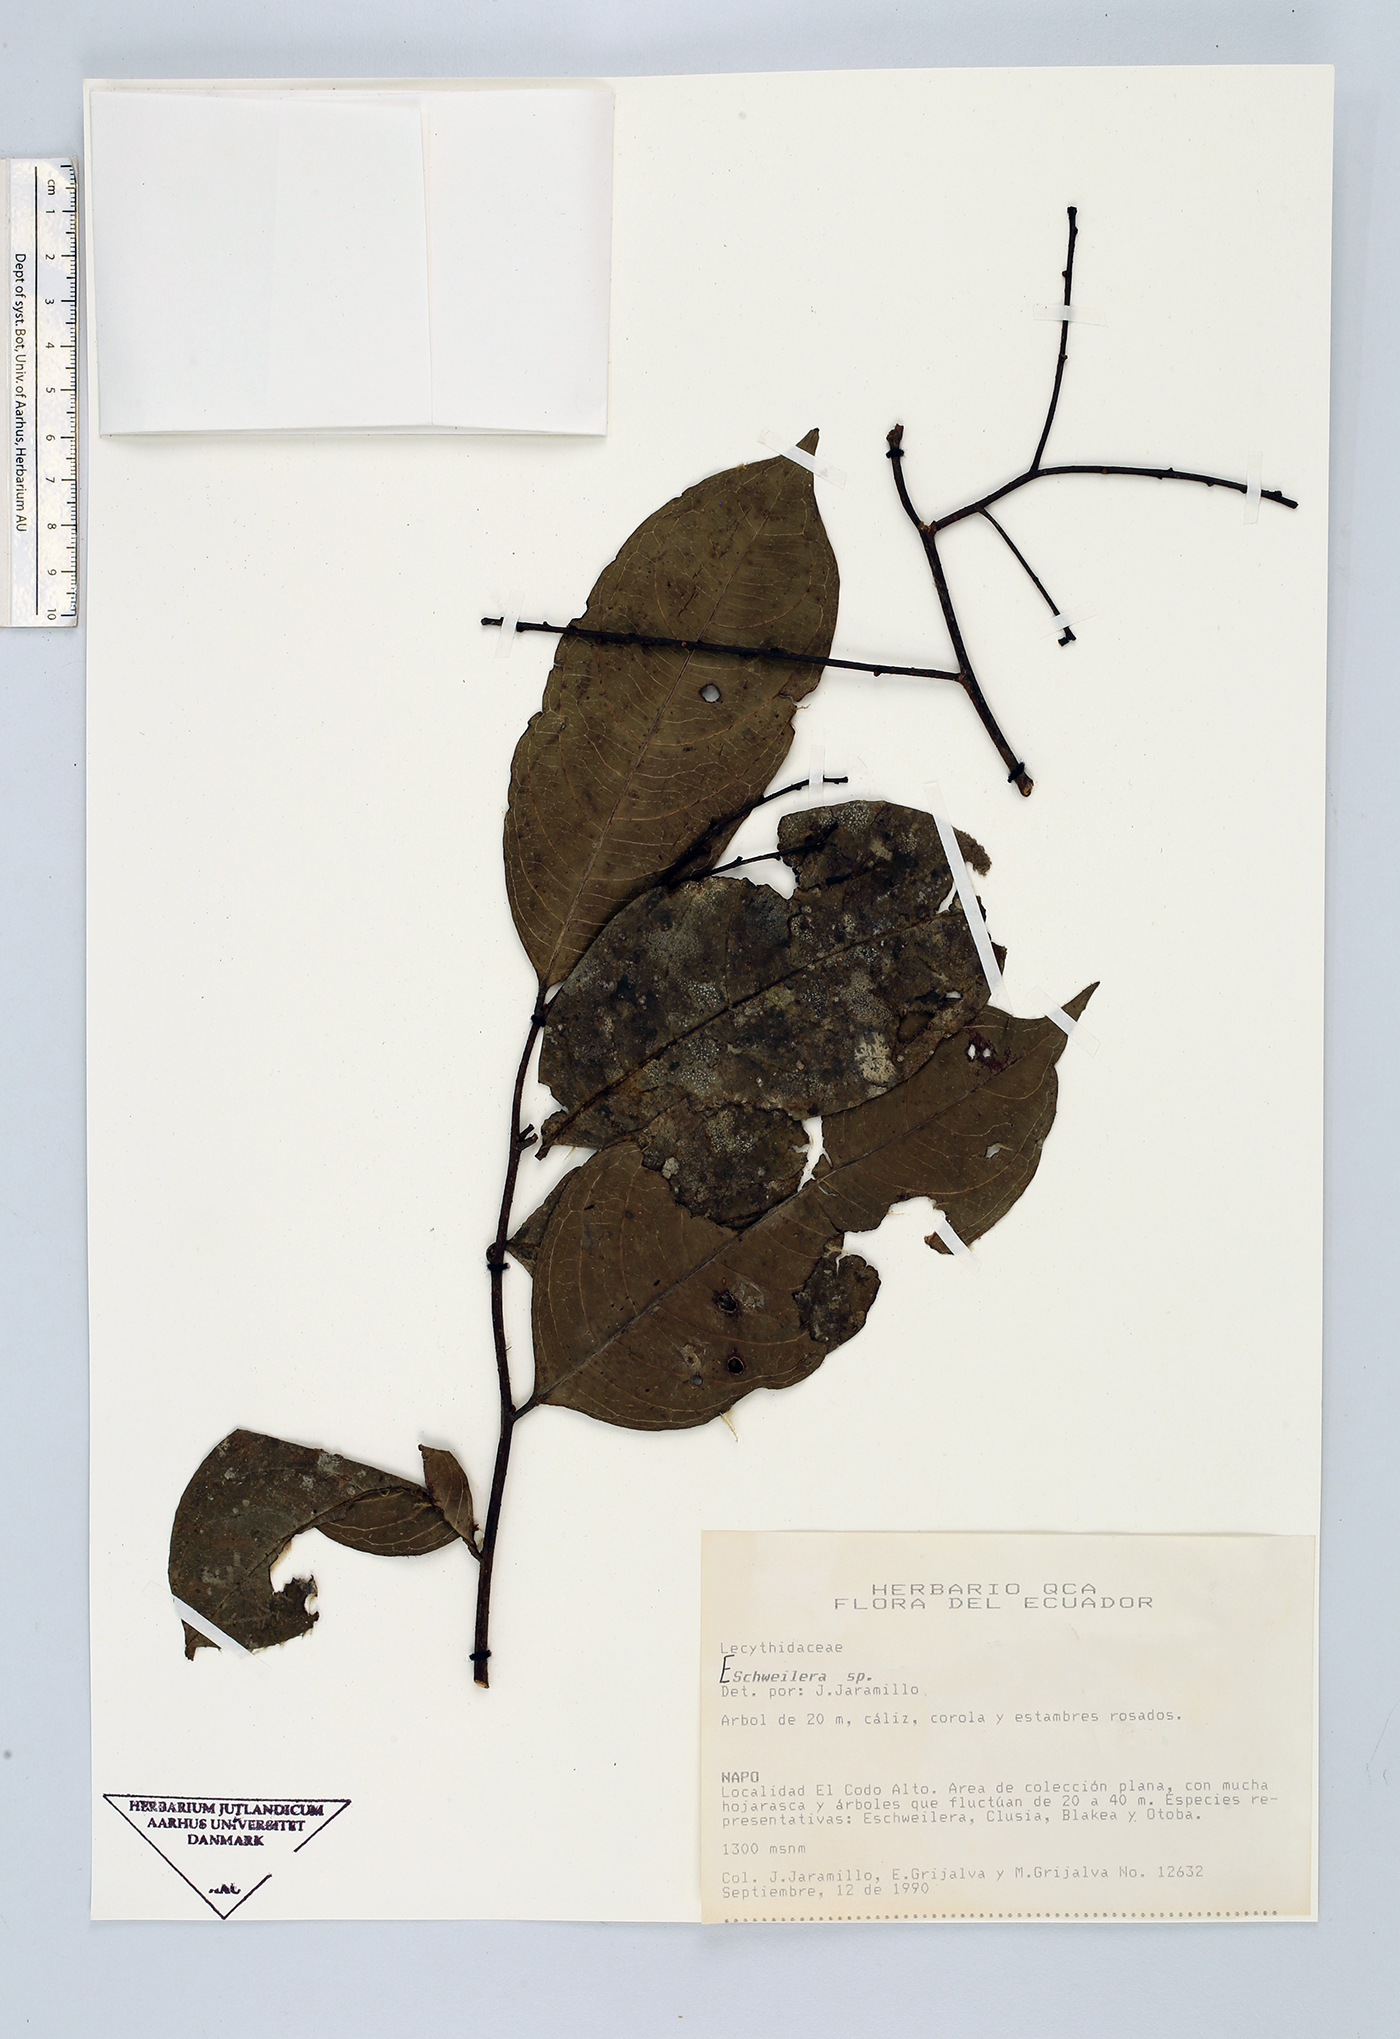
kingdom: Plantae
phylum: Tracheophyta
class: Magnoliopsida
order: Ericales
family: Lecythidaceae
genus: Eschweilera
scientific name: Eschweilera
